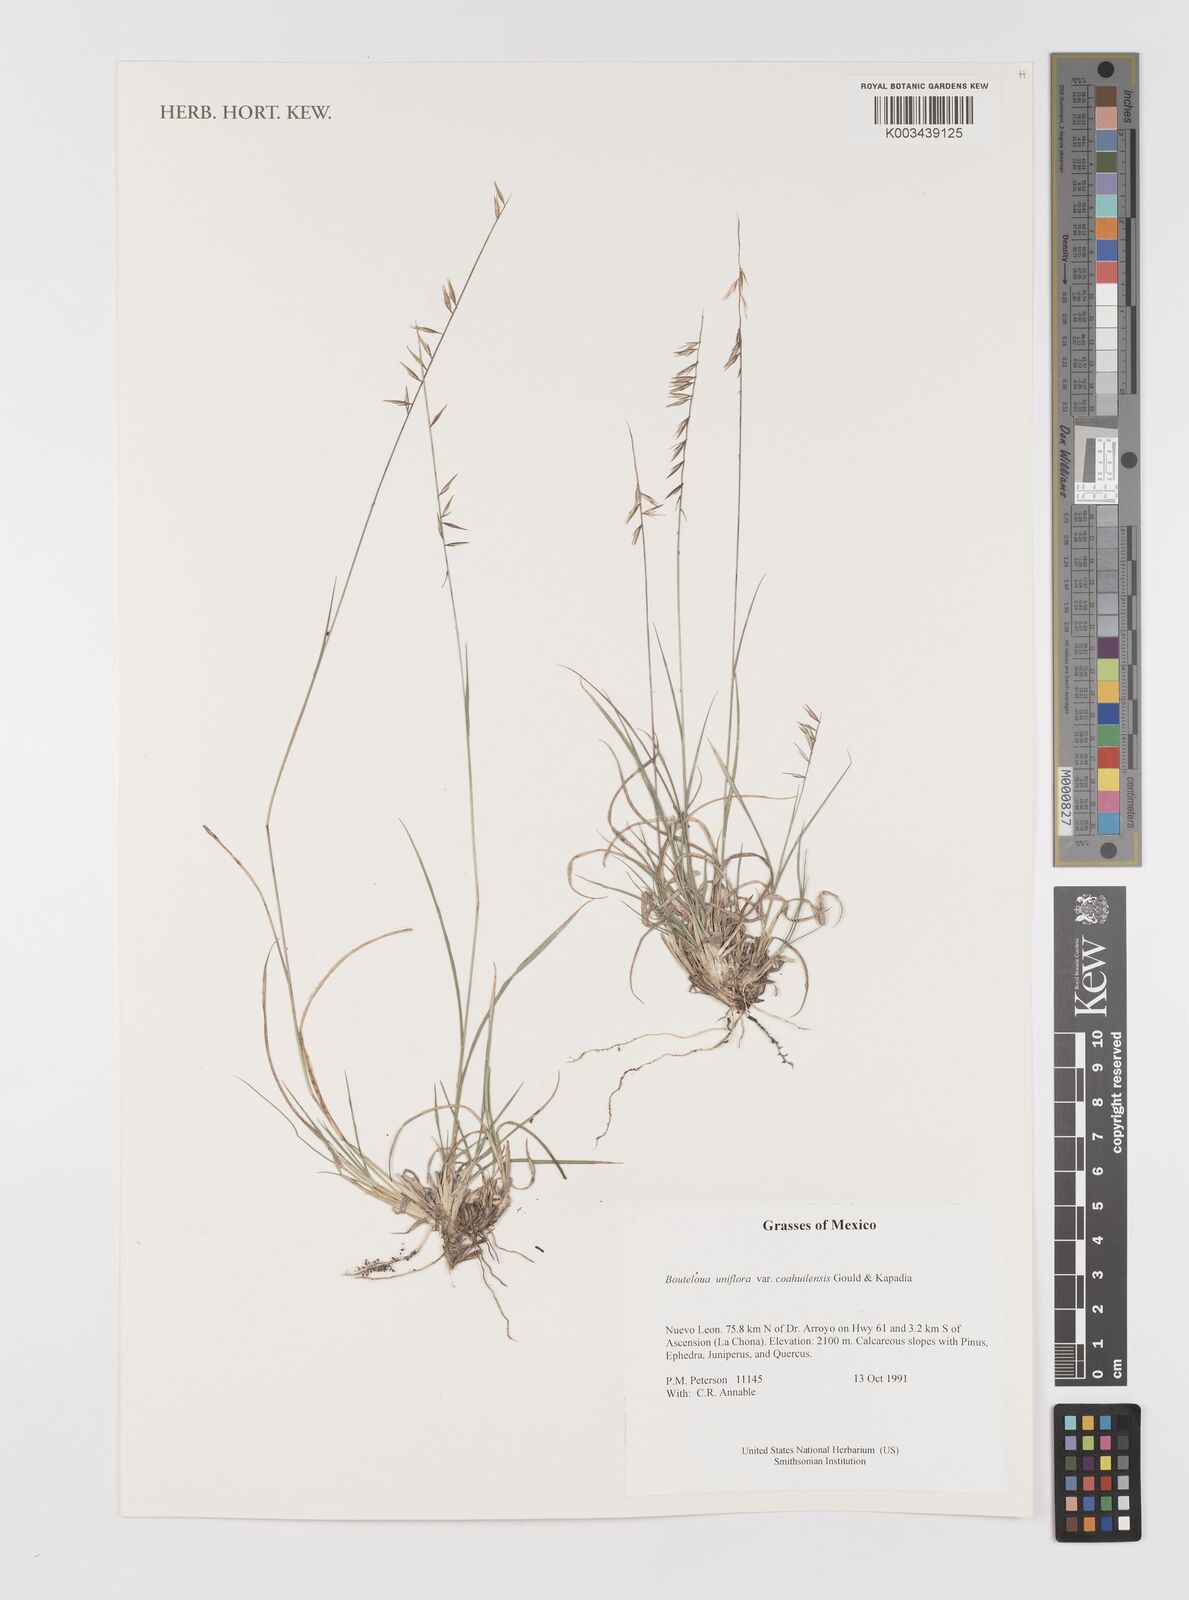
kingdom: Plantae
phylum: Tracheophyta
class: Liliopsida
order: Poales
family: Poaceae
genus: Bouteloua
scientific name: Bouteloua uniflora
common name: Neally's grama
